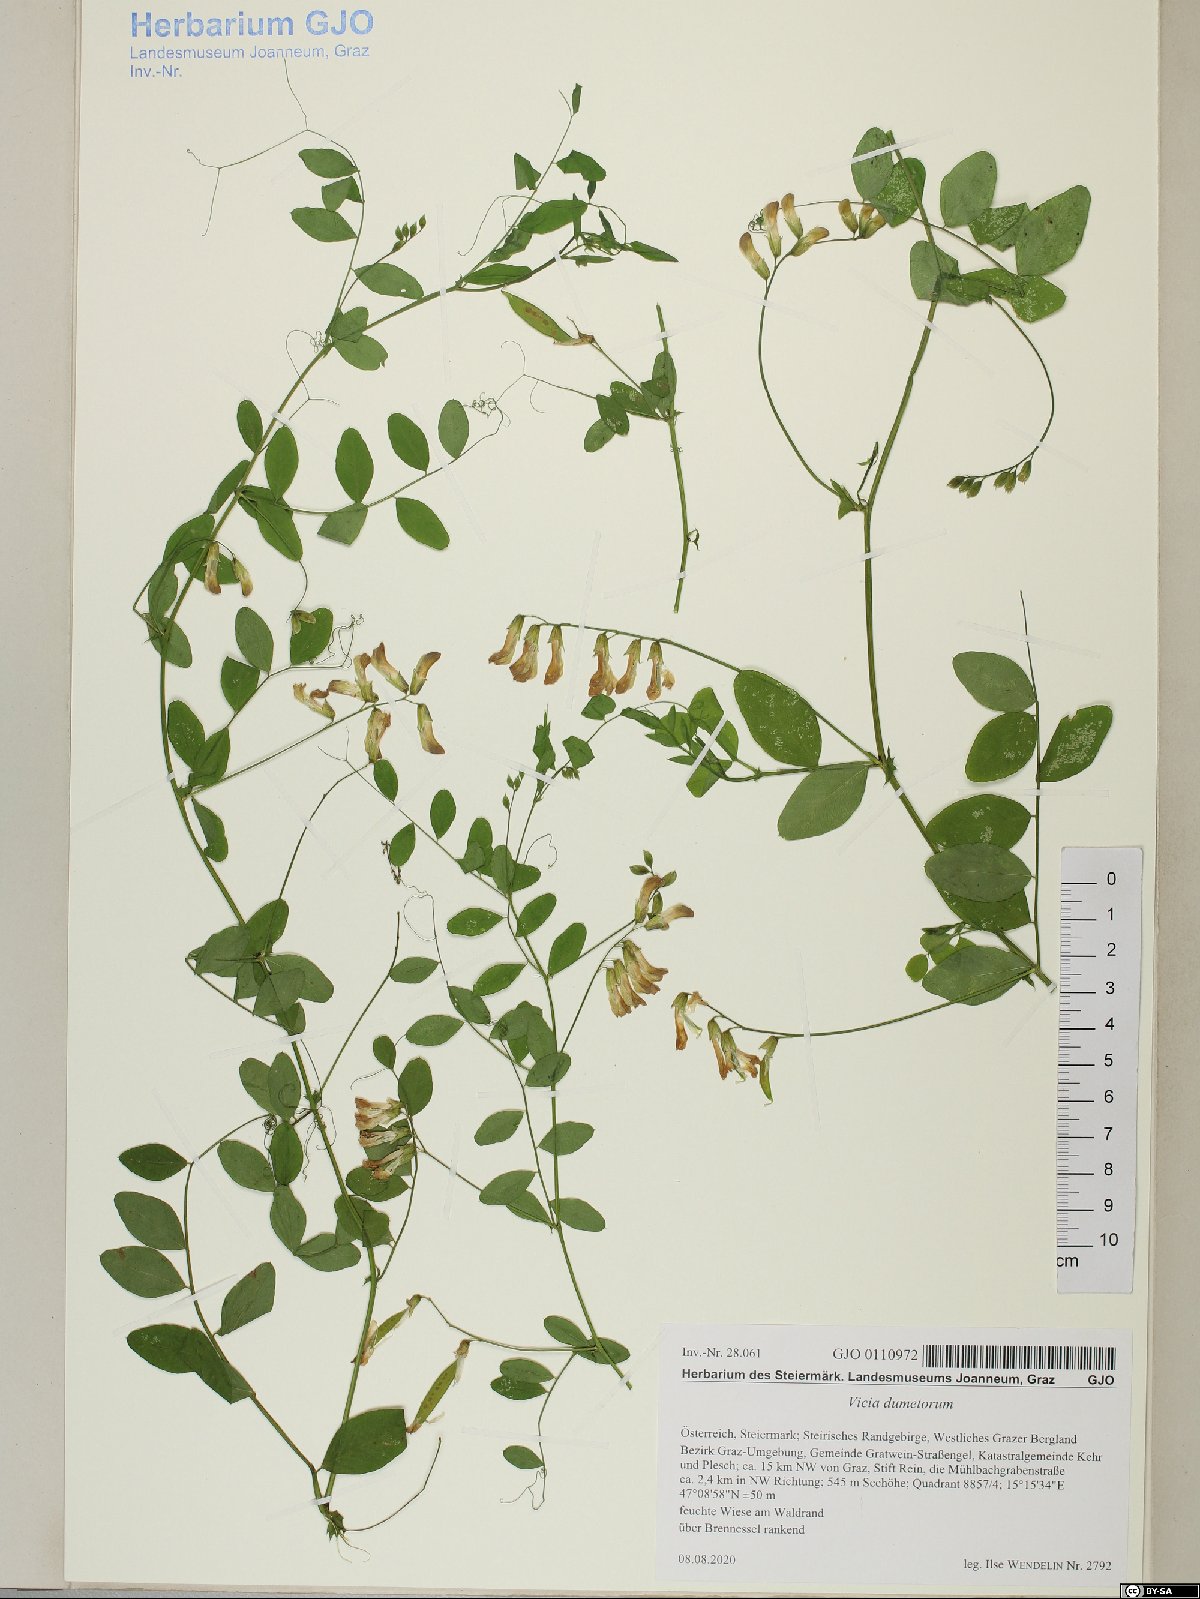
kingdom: Plantae
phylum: Tracheophyta
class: Magnoliopsida
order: Fabales
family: Fabaceae
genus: Vicia
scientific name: Vicia dumetorum
